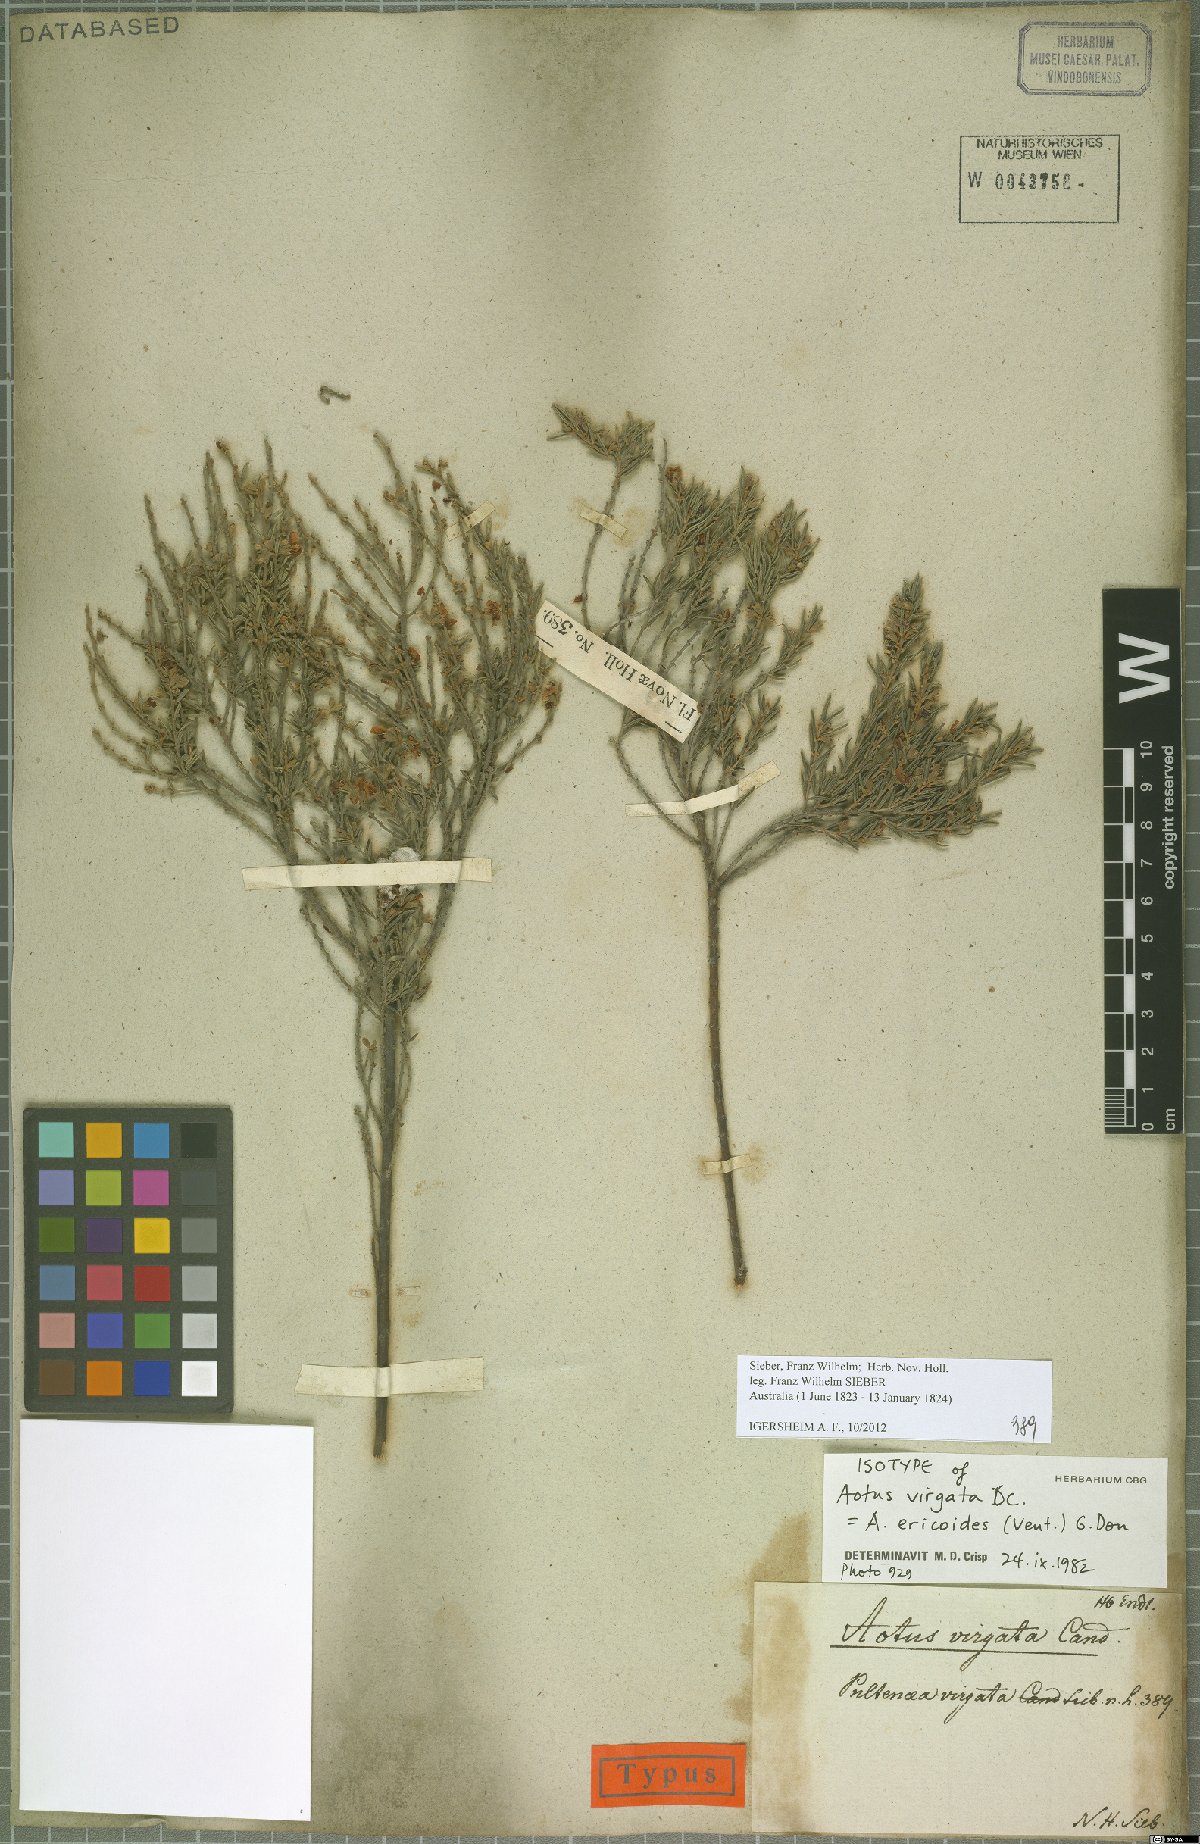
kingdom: Plantae
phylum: Tracheophyta
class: Magnoliopsida
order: Fabales
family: Fabaceae
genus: Aotus
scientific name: Aotus ericoides
